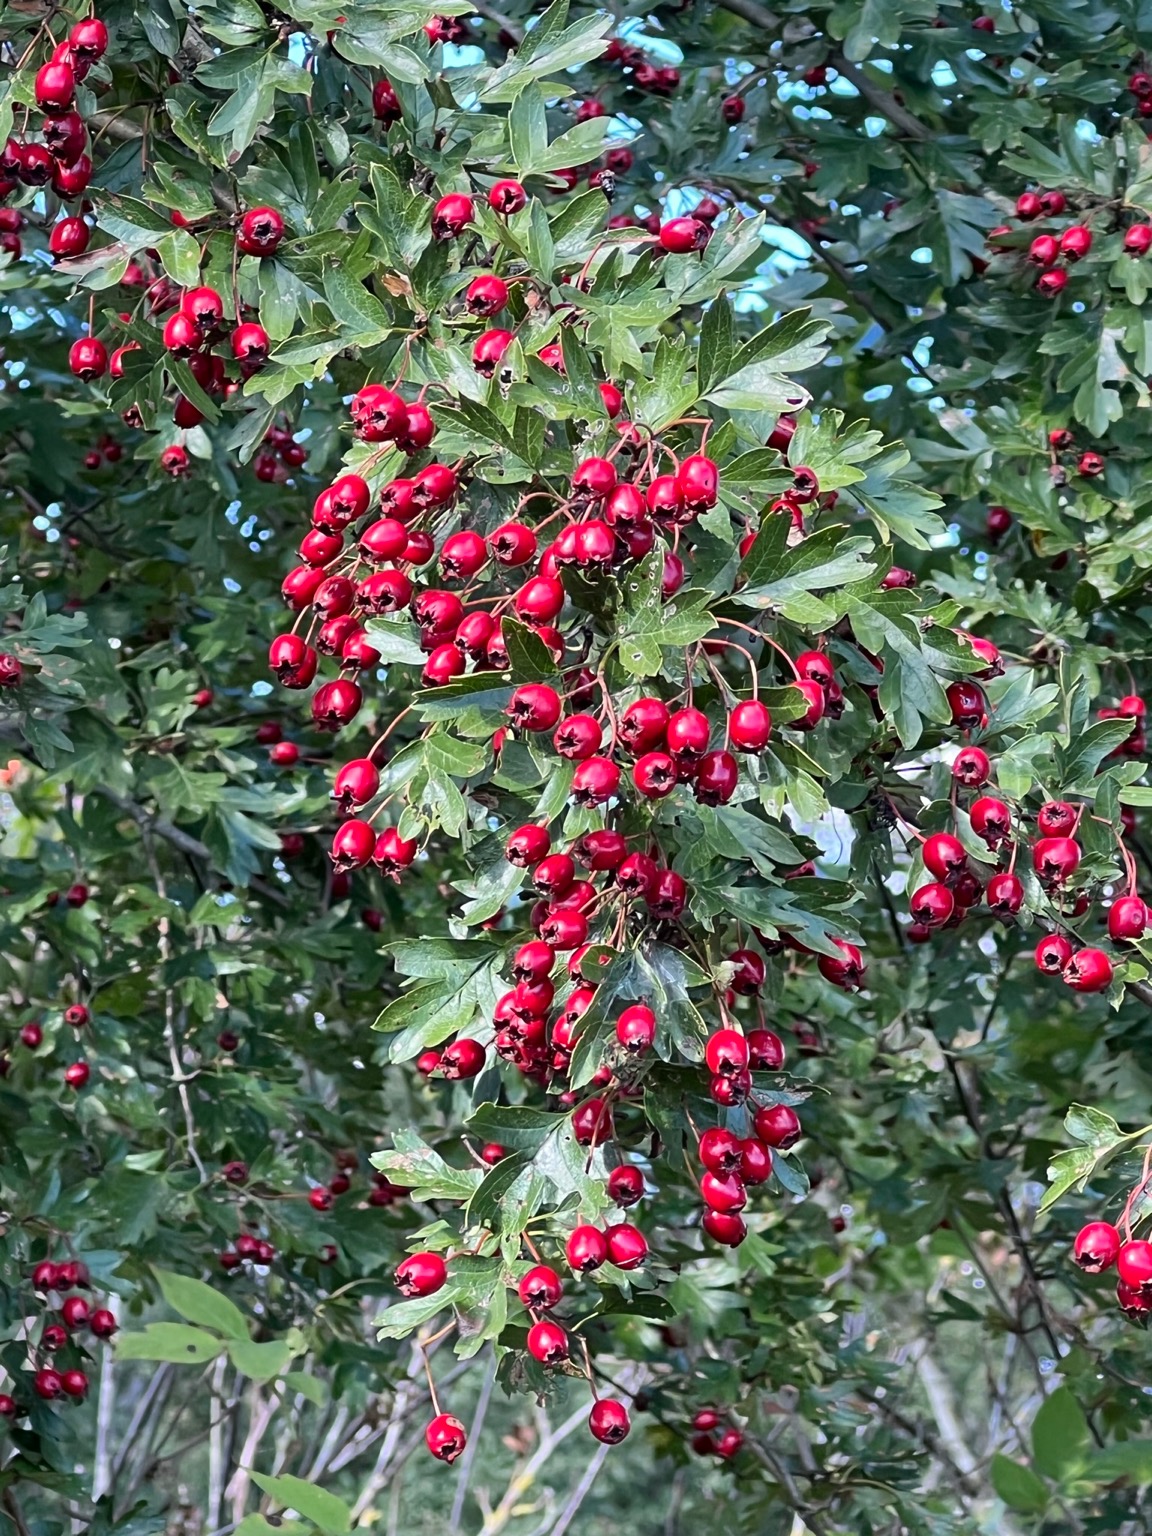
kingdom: Plantae
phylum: Tracheophyta
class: Magnoliopsida
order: Rosales
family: Rosaceae
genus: Crataegus
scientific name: Crataegus monogyna
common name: Engriflet hvidtjørn
